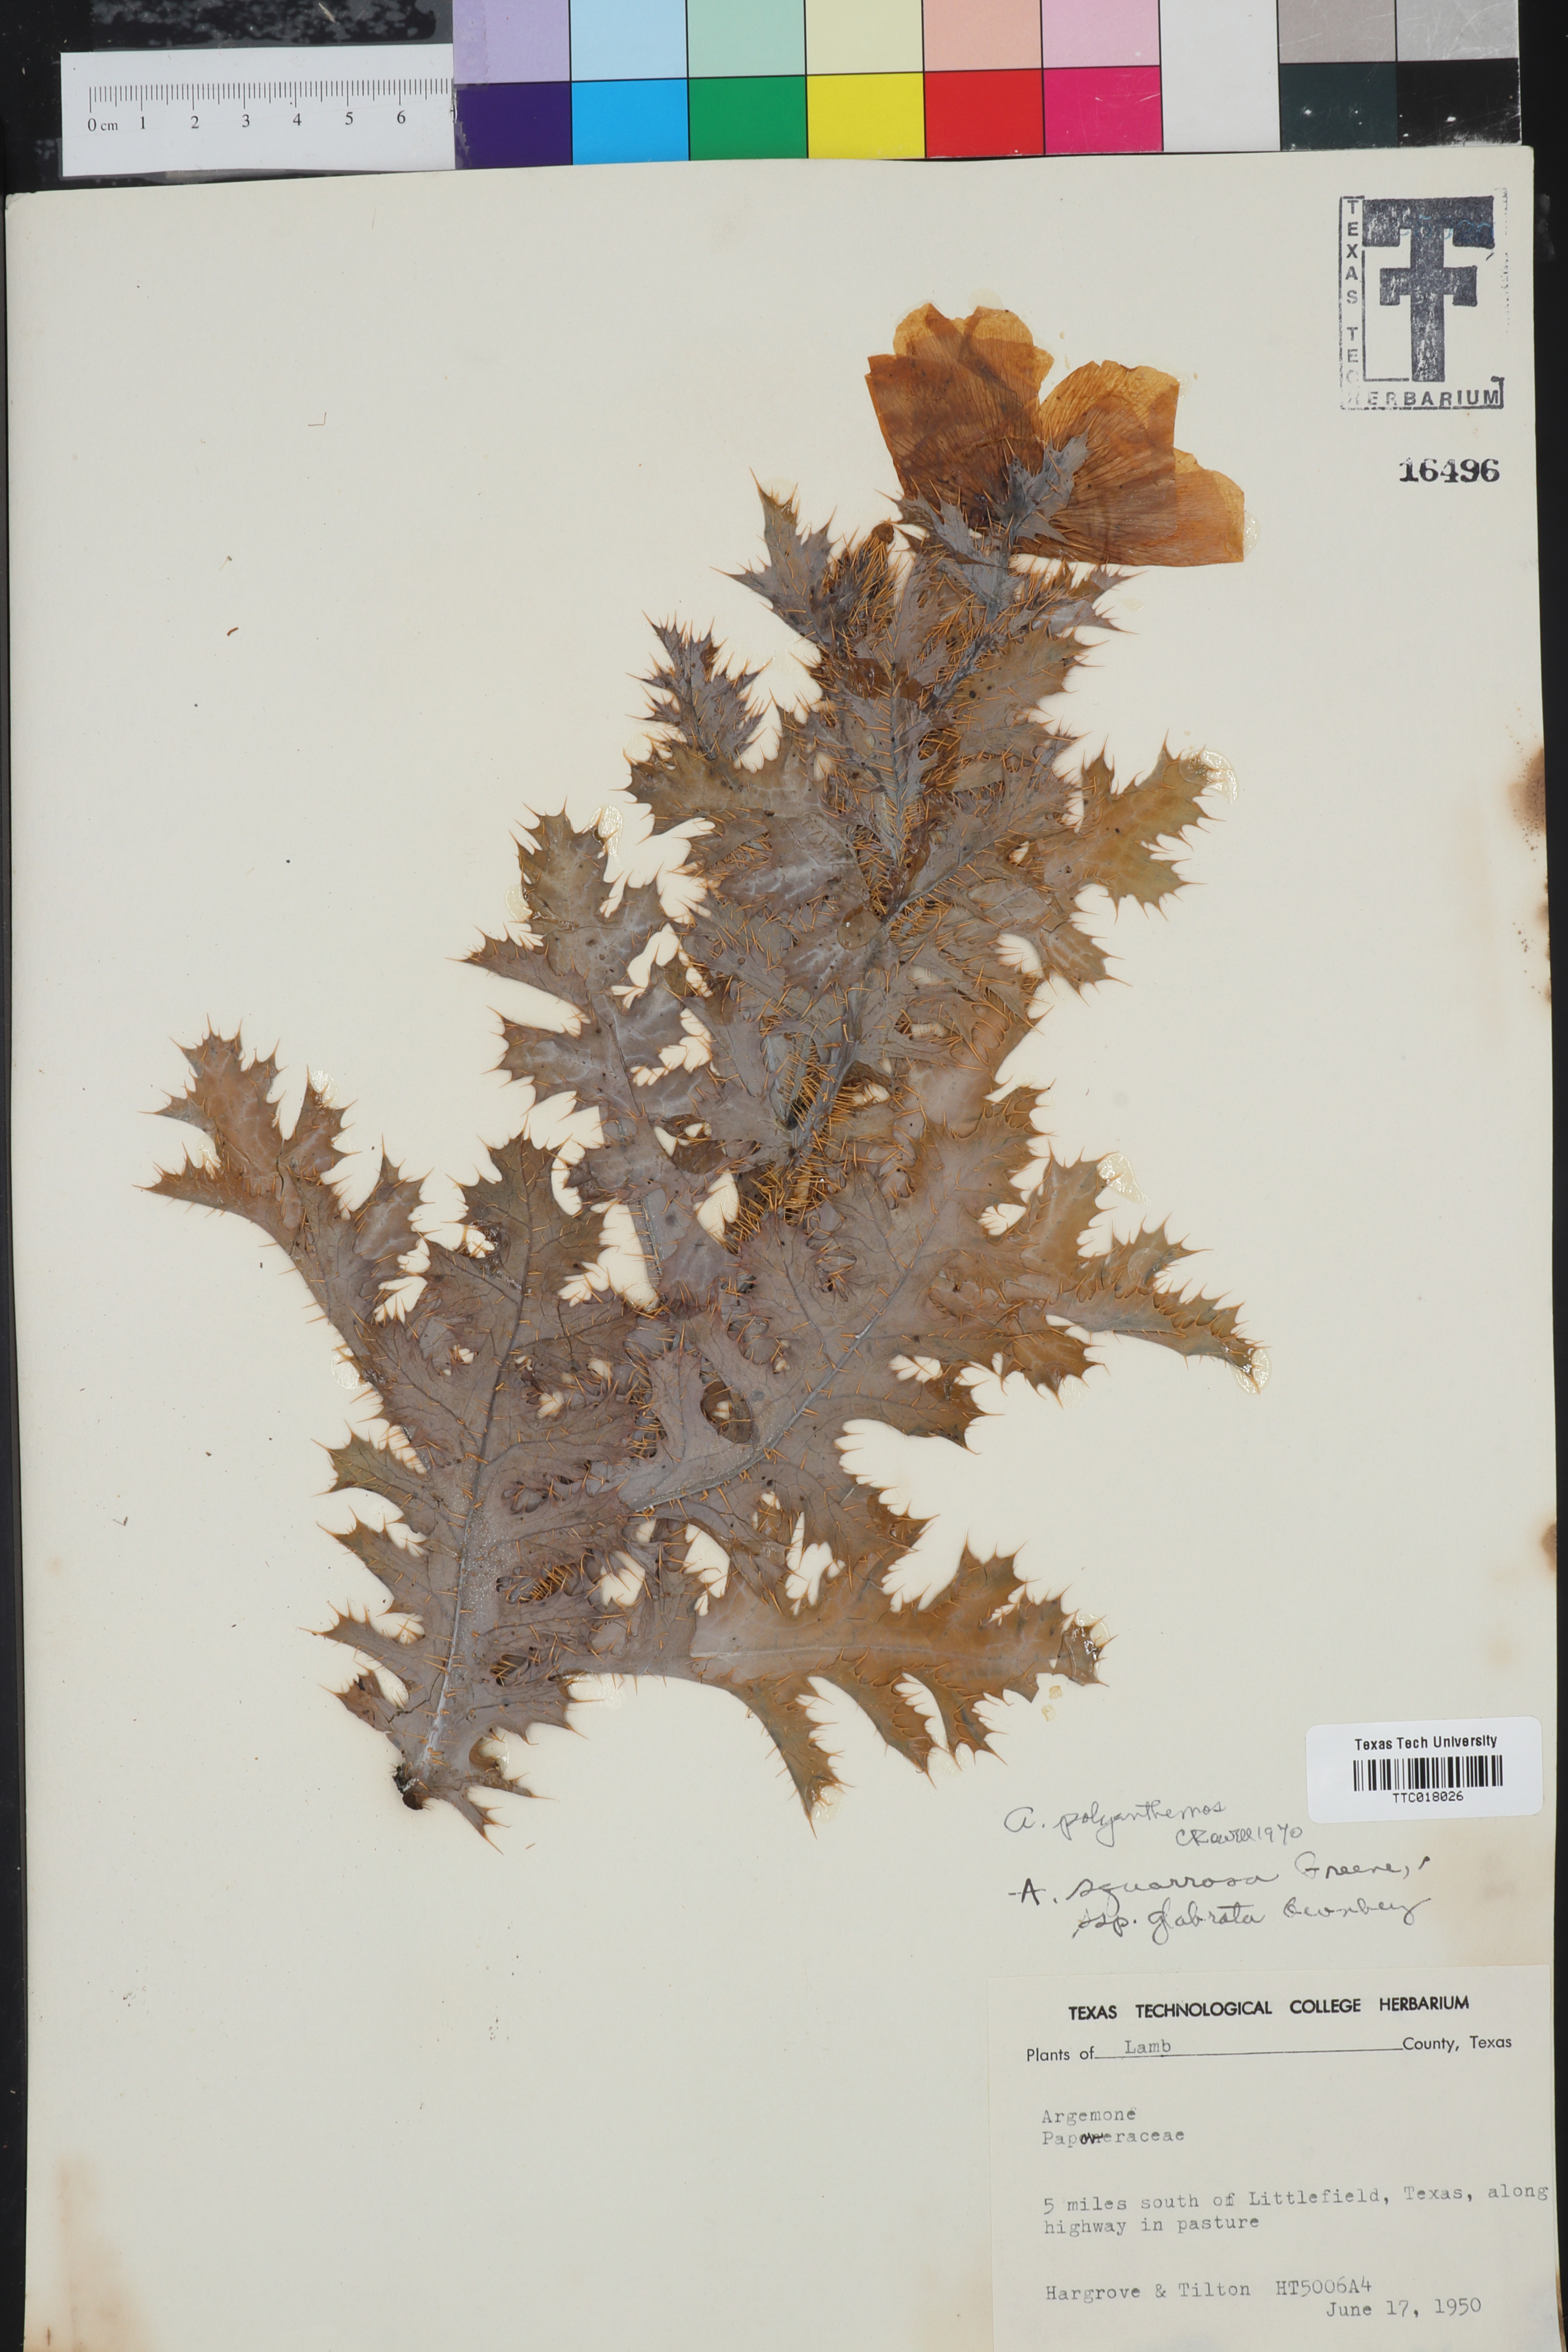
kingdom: Plantae
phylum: Tracheophyta
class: Magnoliopsida
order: Ranunculales
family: Papaveraceae
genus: Argemone
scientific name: Argemone polyanthemos
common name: Plains prickly-poppy
